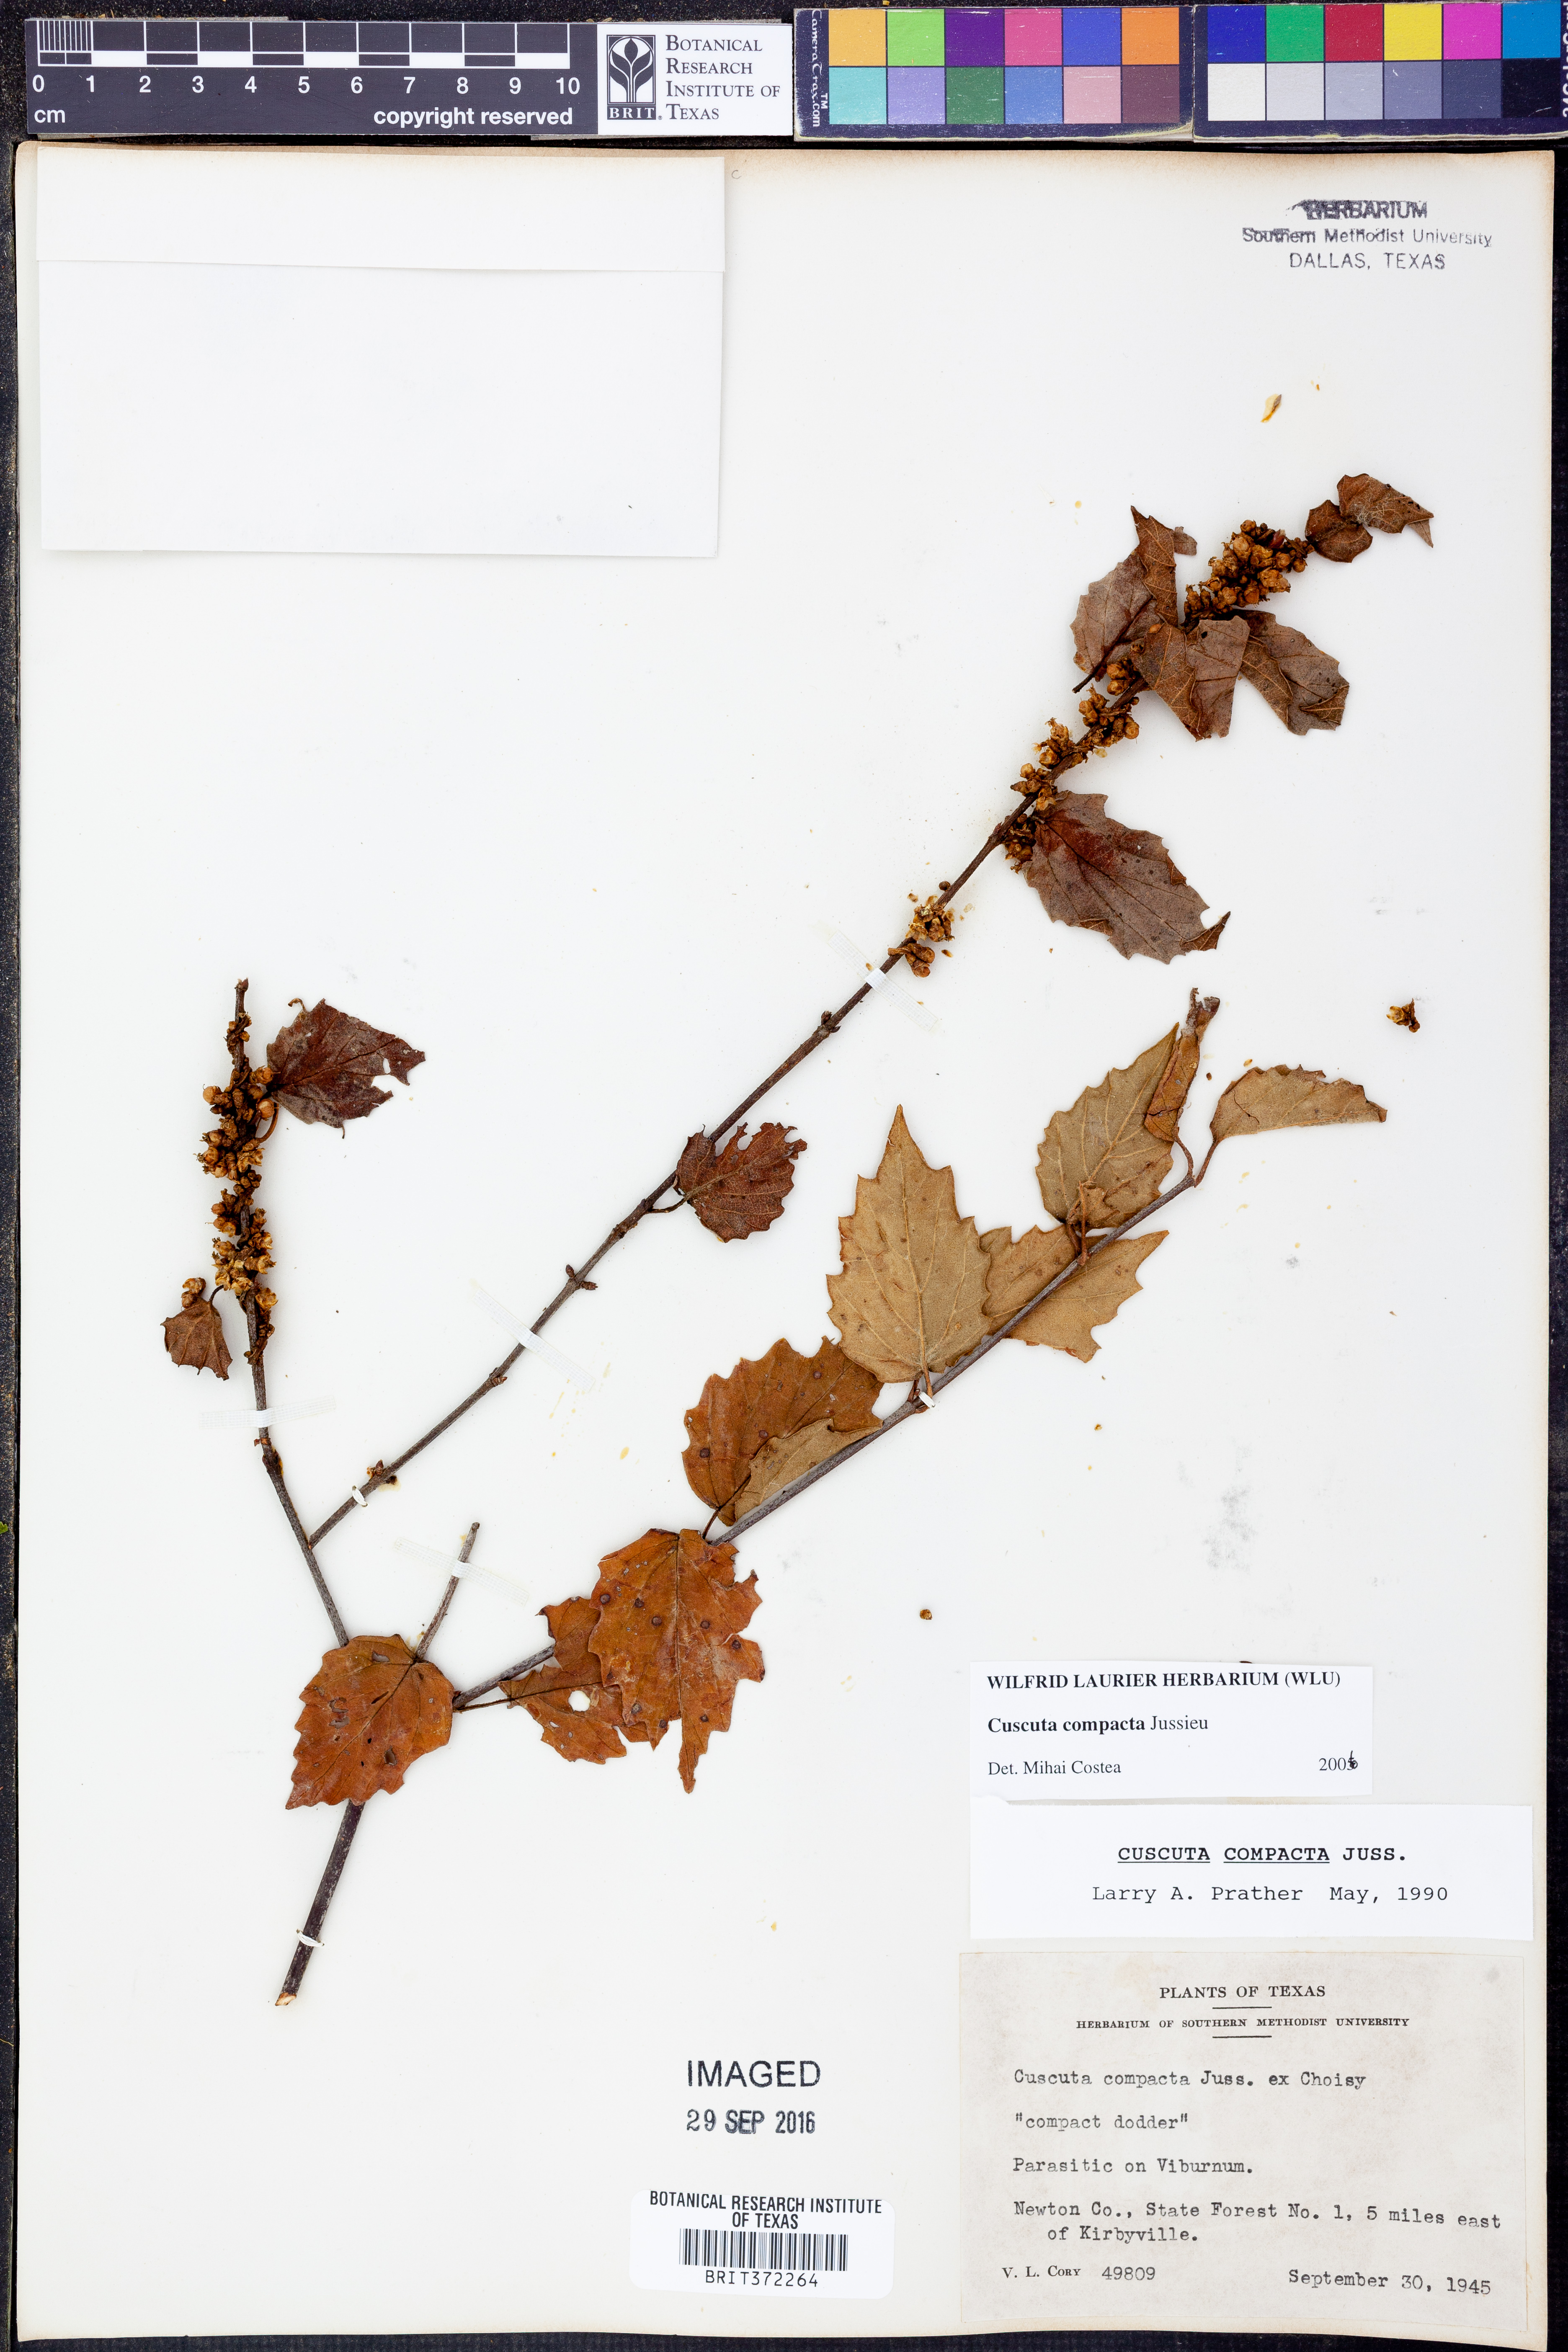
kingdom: Plantae
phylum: Tracheophyta
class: Magnoliopsida
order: Solanales
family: Convolvulaceae
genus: Cuscuta
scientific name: Cuscuta compacta
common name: Compact dodder
